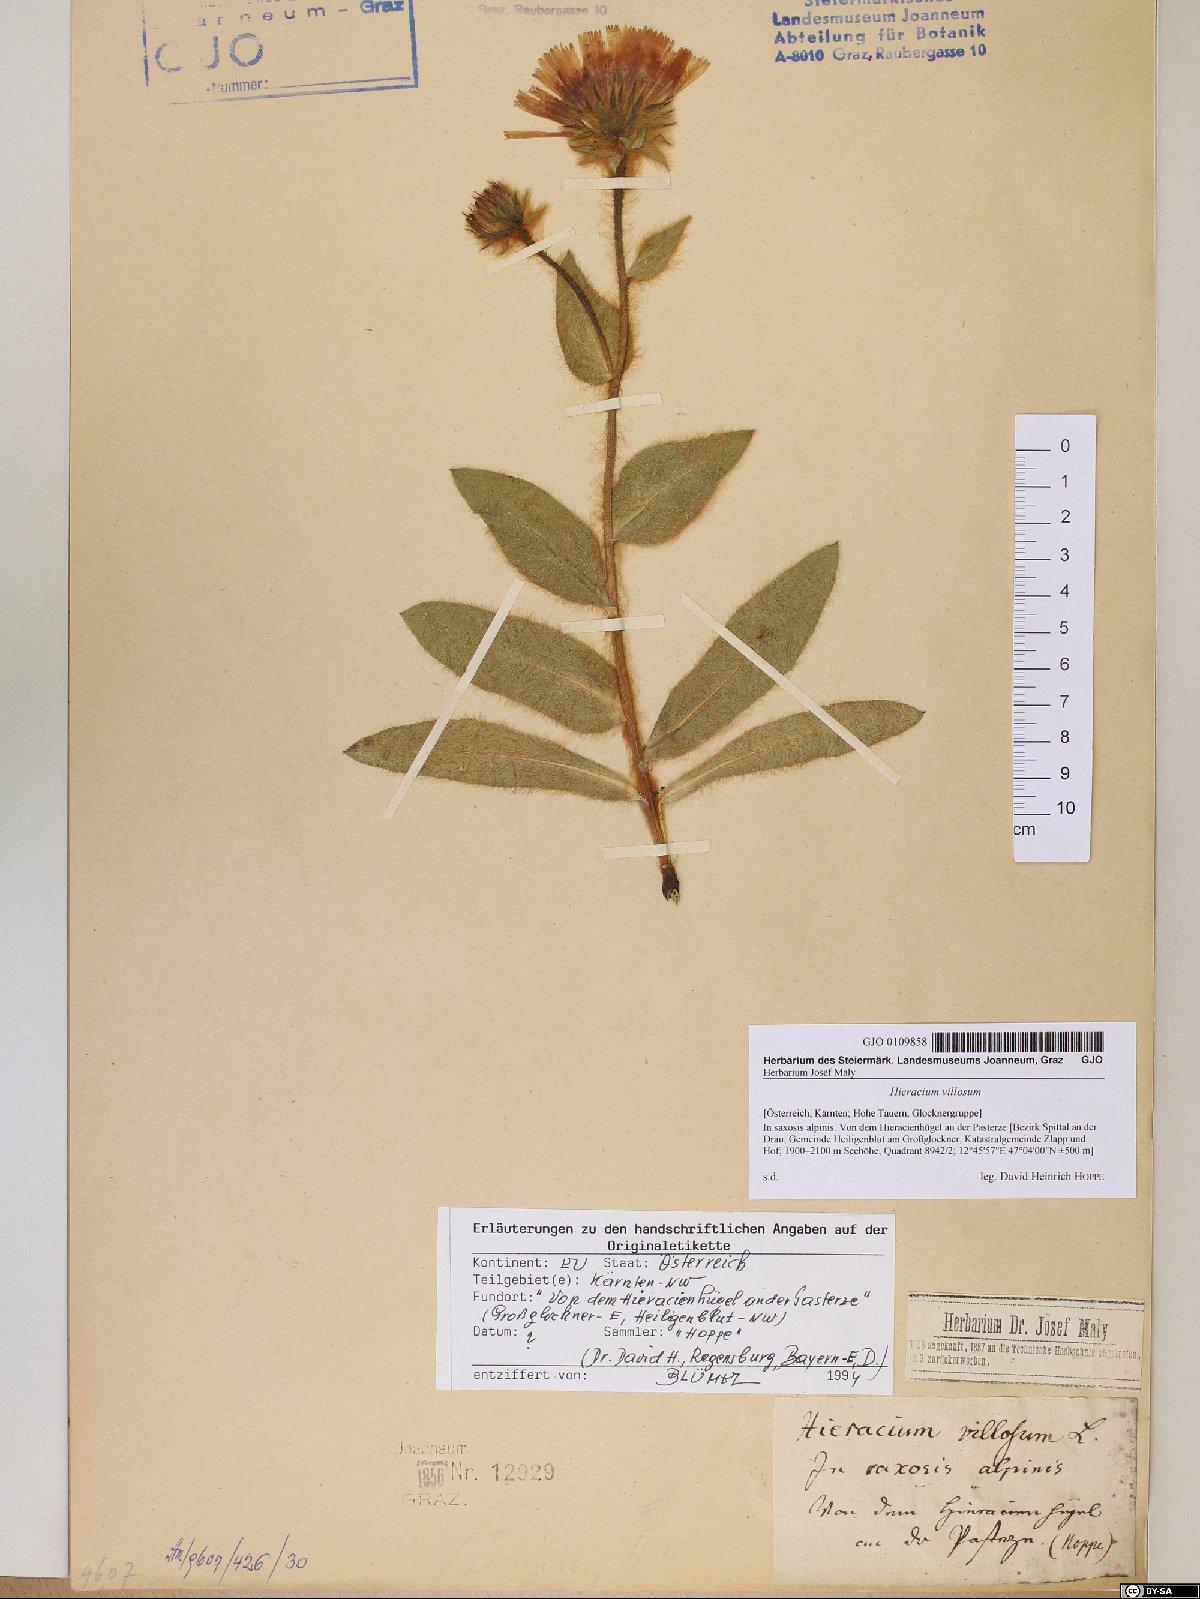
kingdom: Plantae
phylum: Tracheophyta
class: Magnoliopsida
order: Asterales
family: Asteraceae
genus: Hieracium
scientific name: Hieracium villosum
